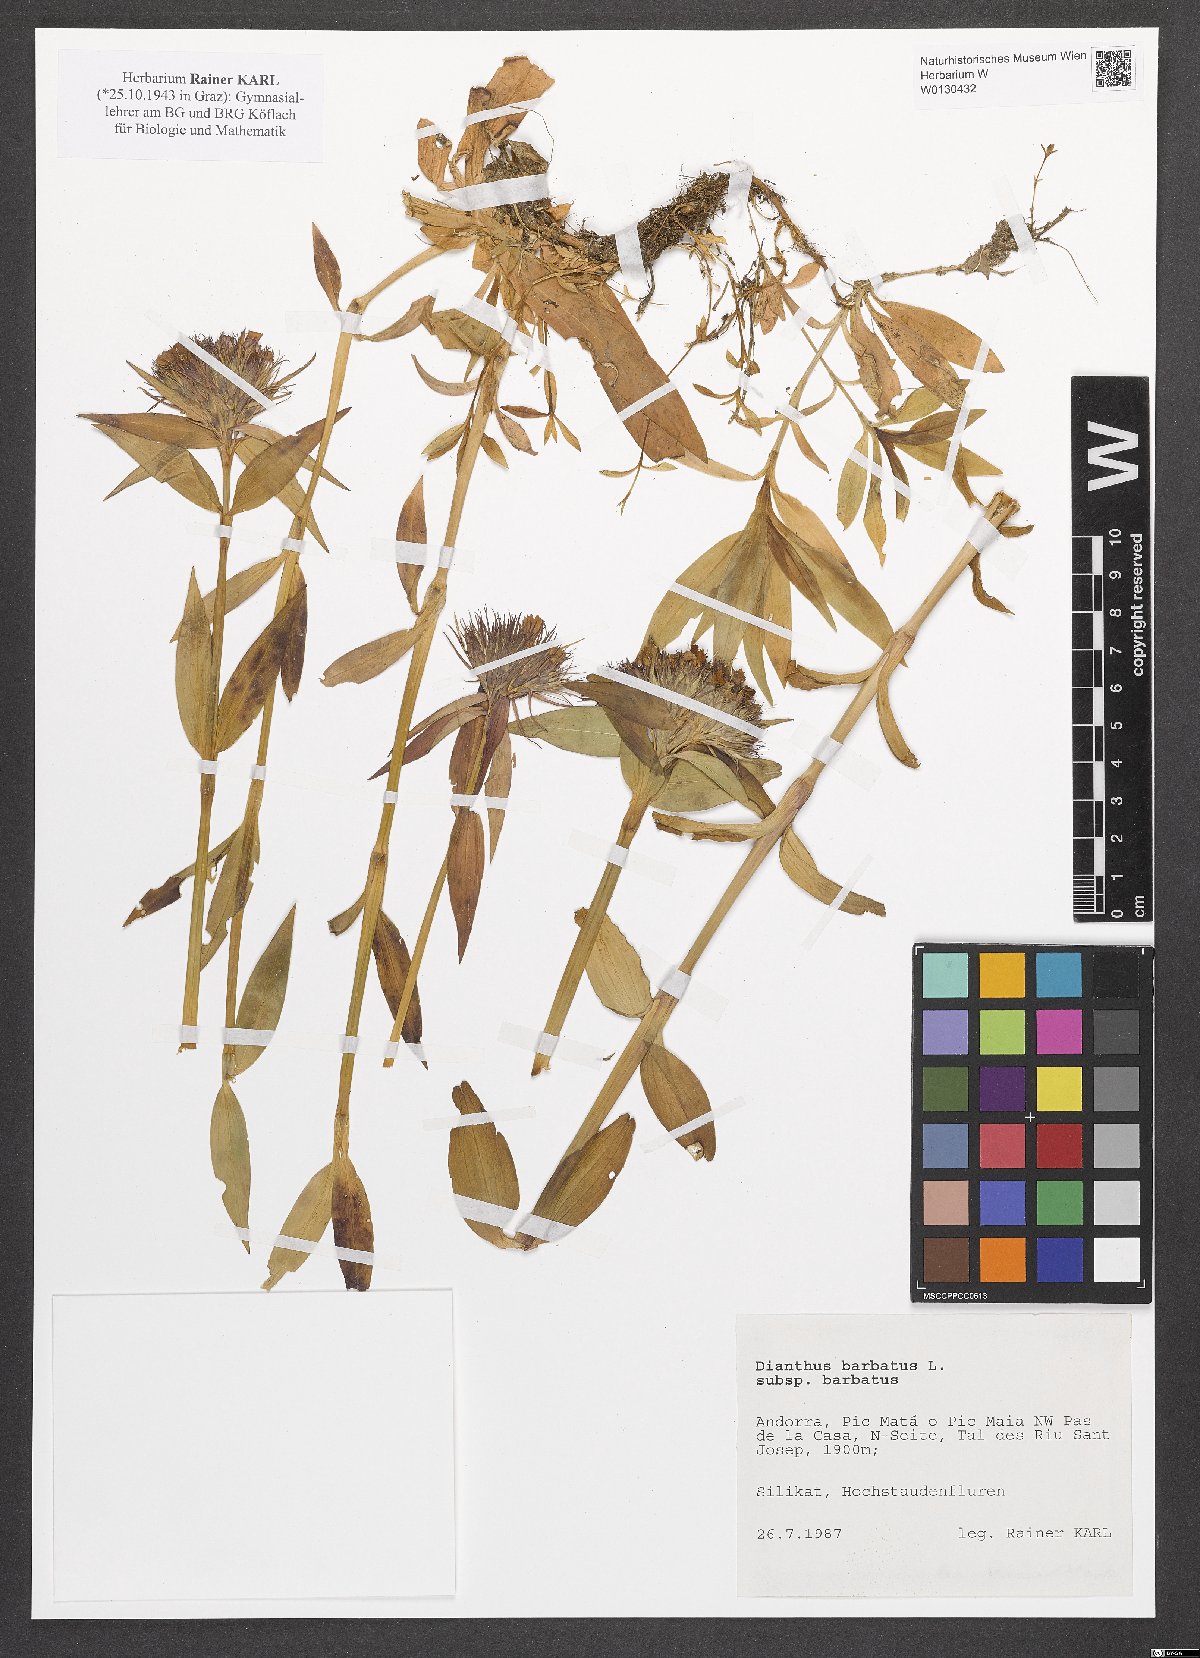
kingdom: Plantae
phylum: Tracheophyta
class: Magnoliopsida
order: Caryophyllales
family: Caryophyllaceae
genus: Dianthus
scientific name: Dianthus barbatus
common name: Sweet-william
